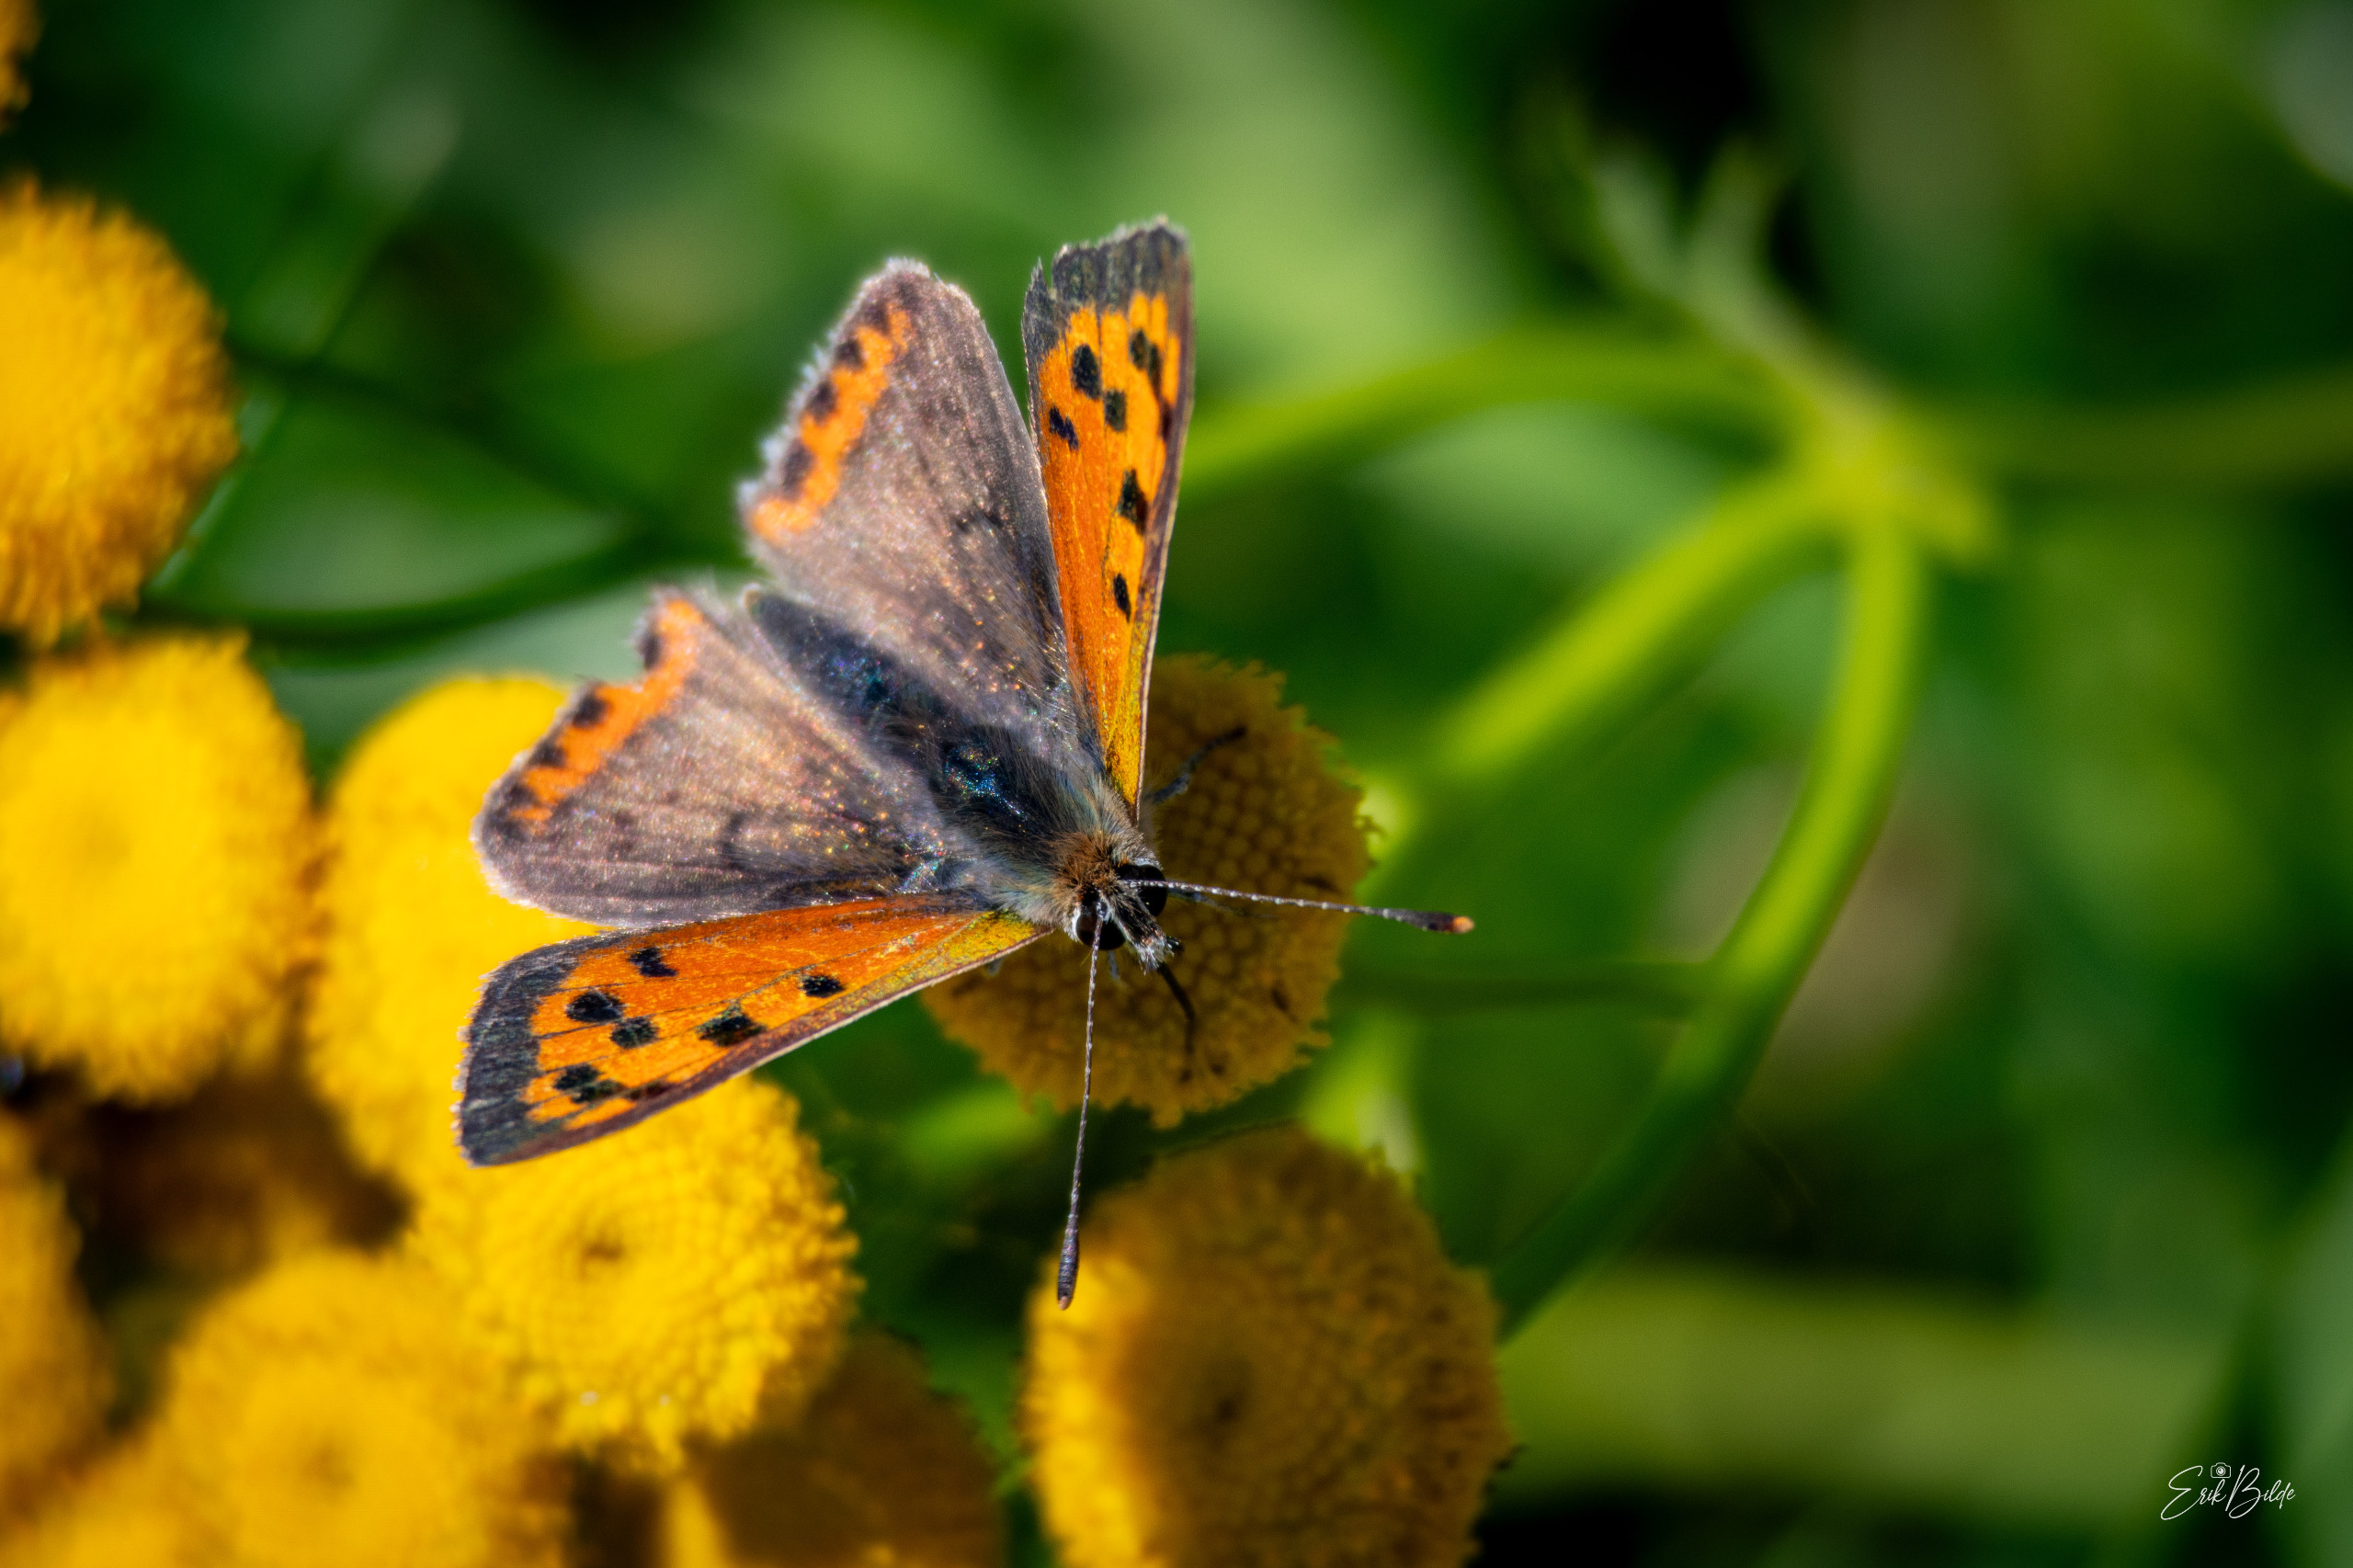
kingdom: Animalia
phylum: Arthropoda
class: Insecta
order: Lepidoptera
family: Lycaenidae
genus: Lycaena
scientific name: Lycaena phlaeas
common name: Lille ildfugl
